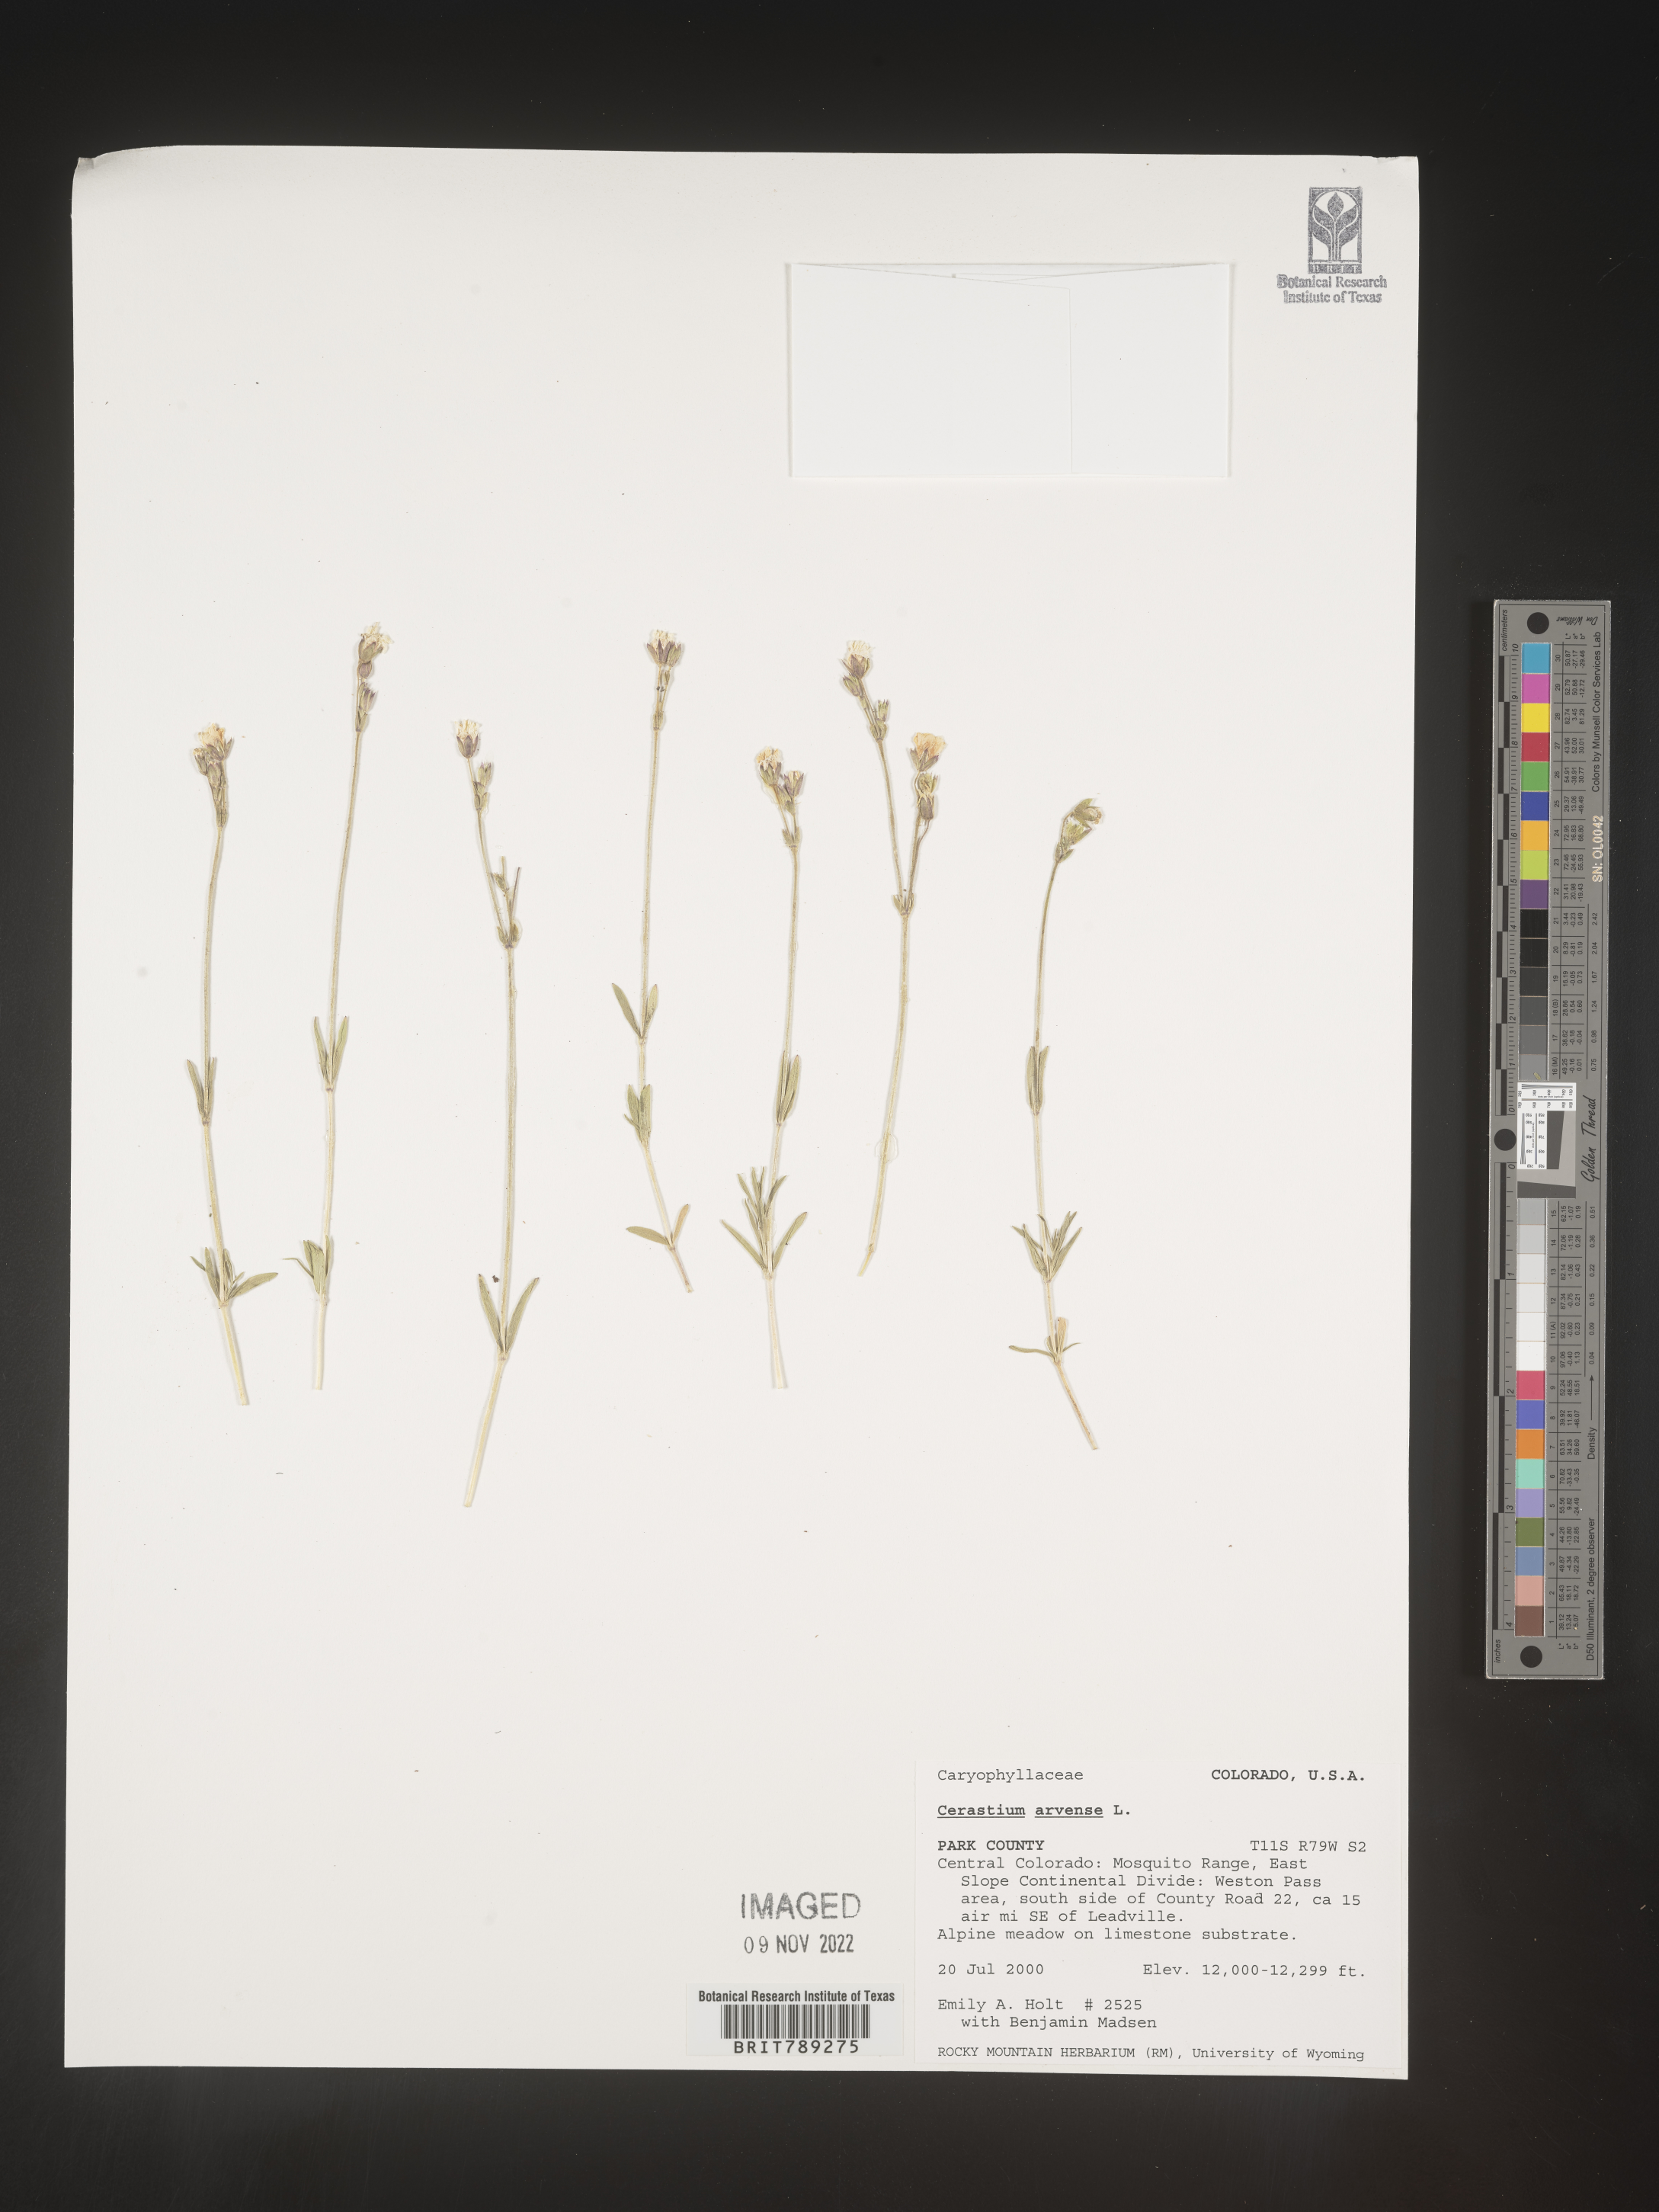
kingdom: Plantae
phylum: Tracheophyta
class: Magnoliopsida
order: Caryophyllales
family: Caryophyllaceae
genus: Cerastium
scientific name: Cerastium arvense
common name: Field mouse-ear
